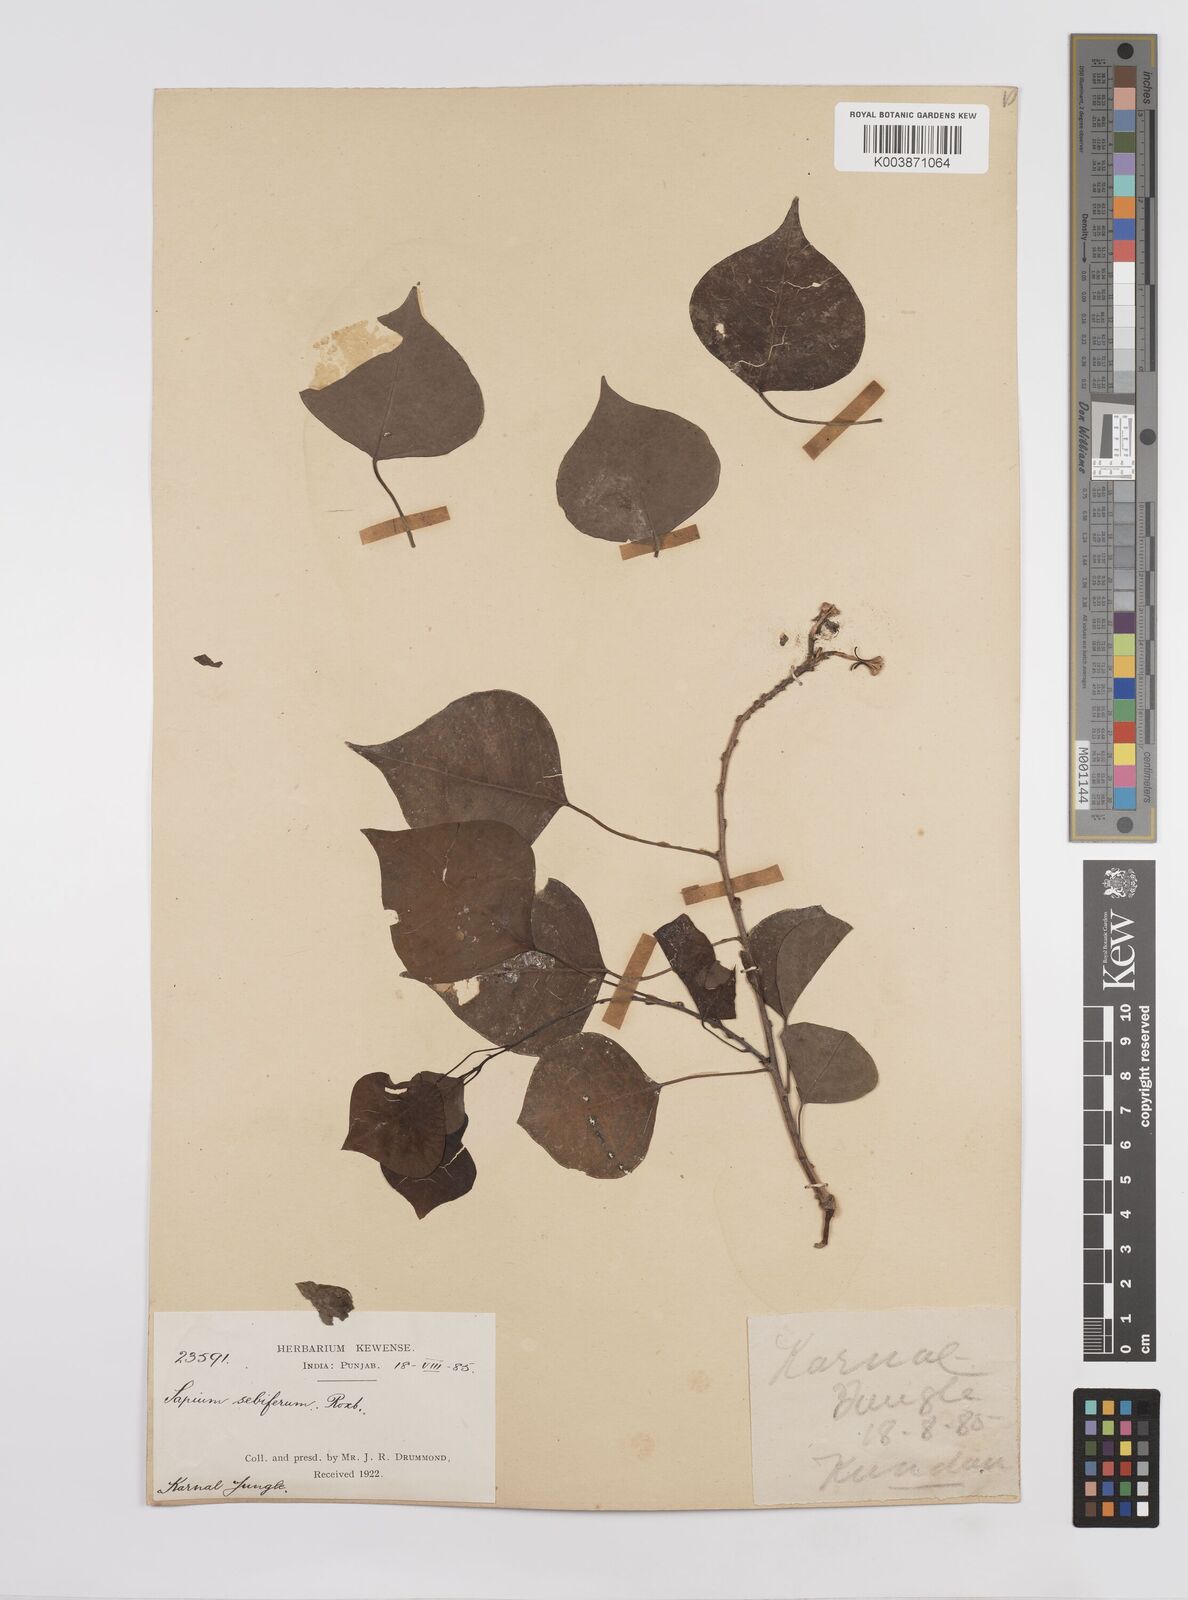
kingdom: Plantae
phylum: Tracheophyta
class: Magnoliopsida
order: Malpighiales
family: Euphorbiaceae
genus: Triadica
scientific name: Triadica sebifera
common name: Chinese tallow
